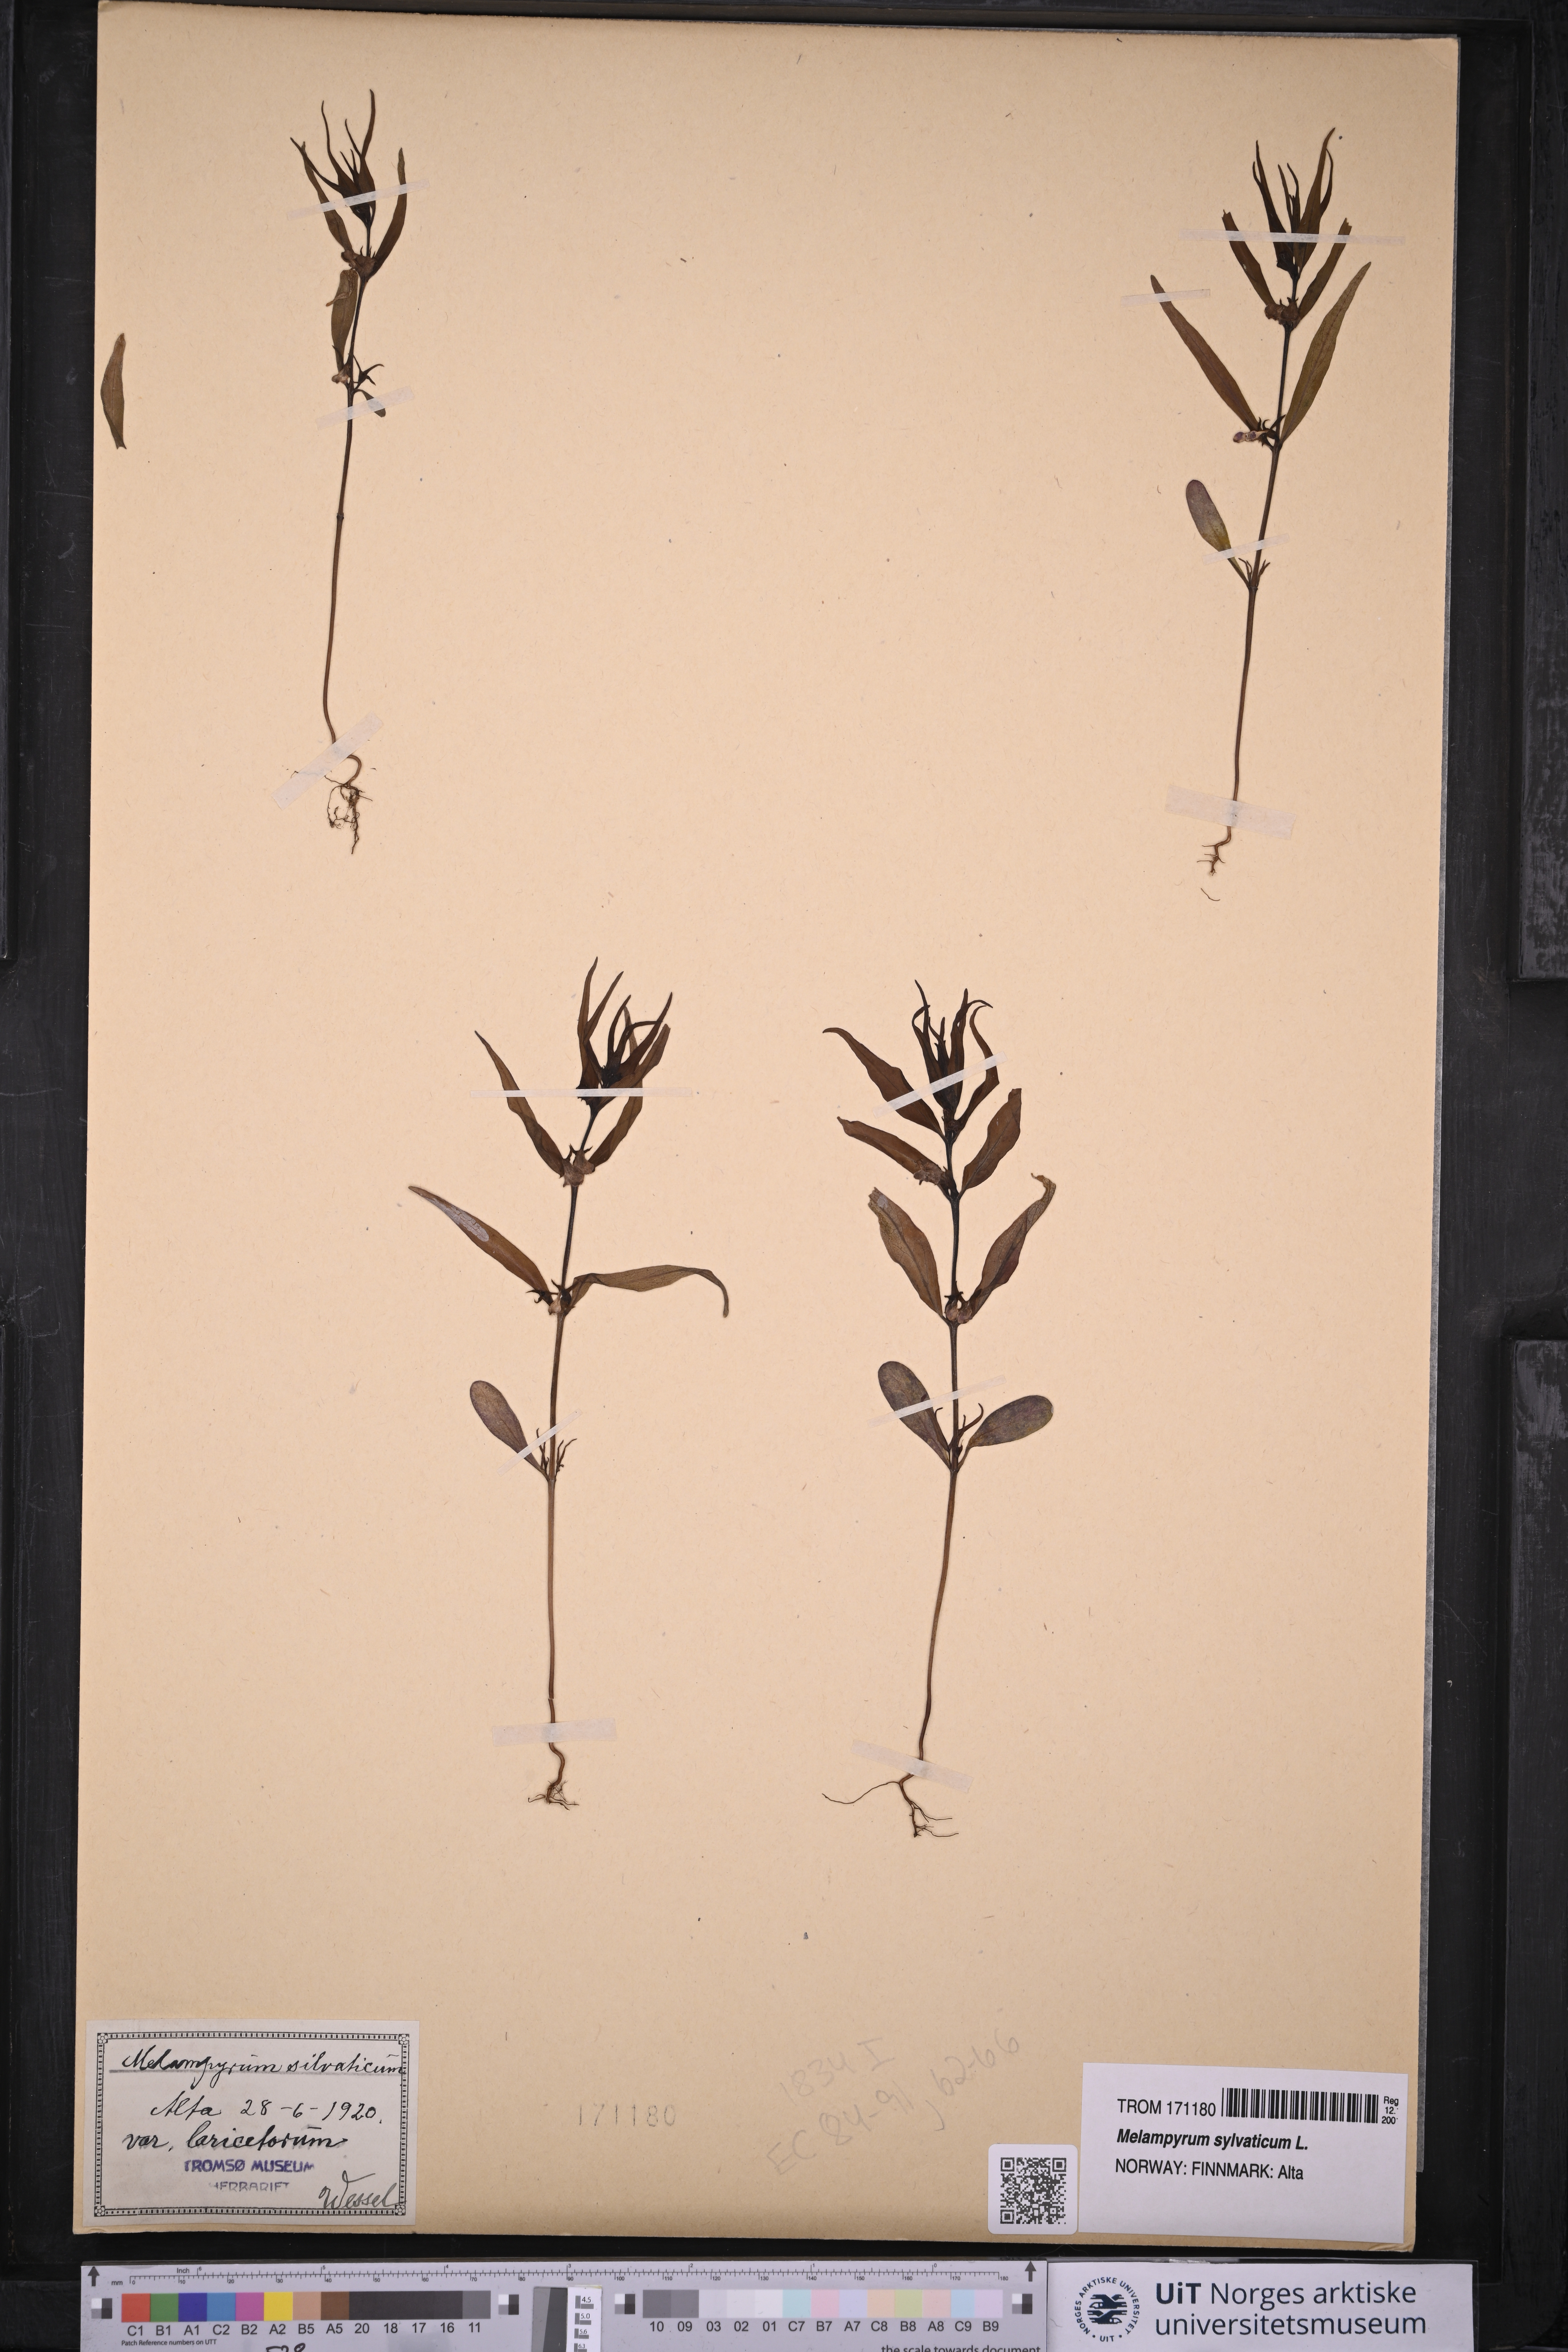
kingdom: Plantae
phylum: Tracheophyta
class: Magnoliopsida
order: Lamiales
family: Orobanchaceae
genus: Melampyrum
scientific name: Melampyrum sylvaticum
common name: Small cow-wheat
